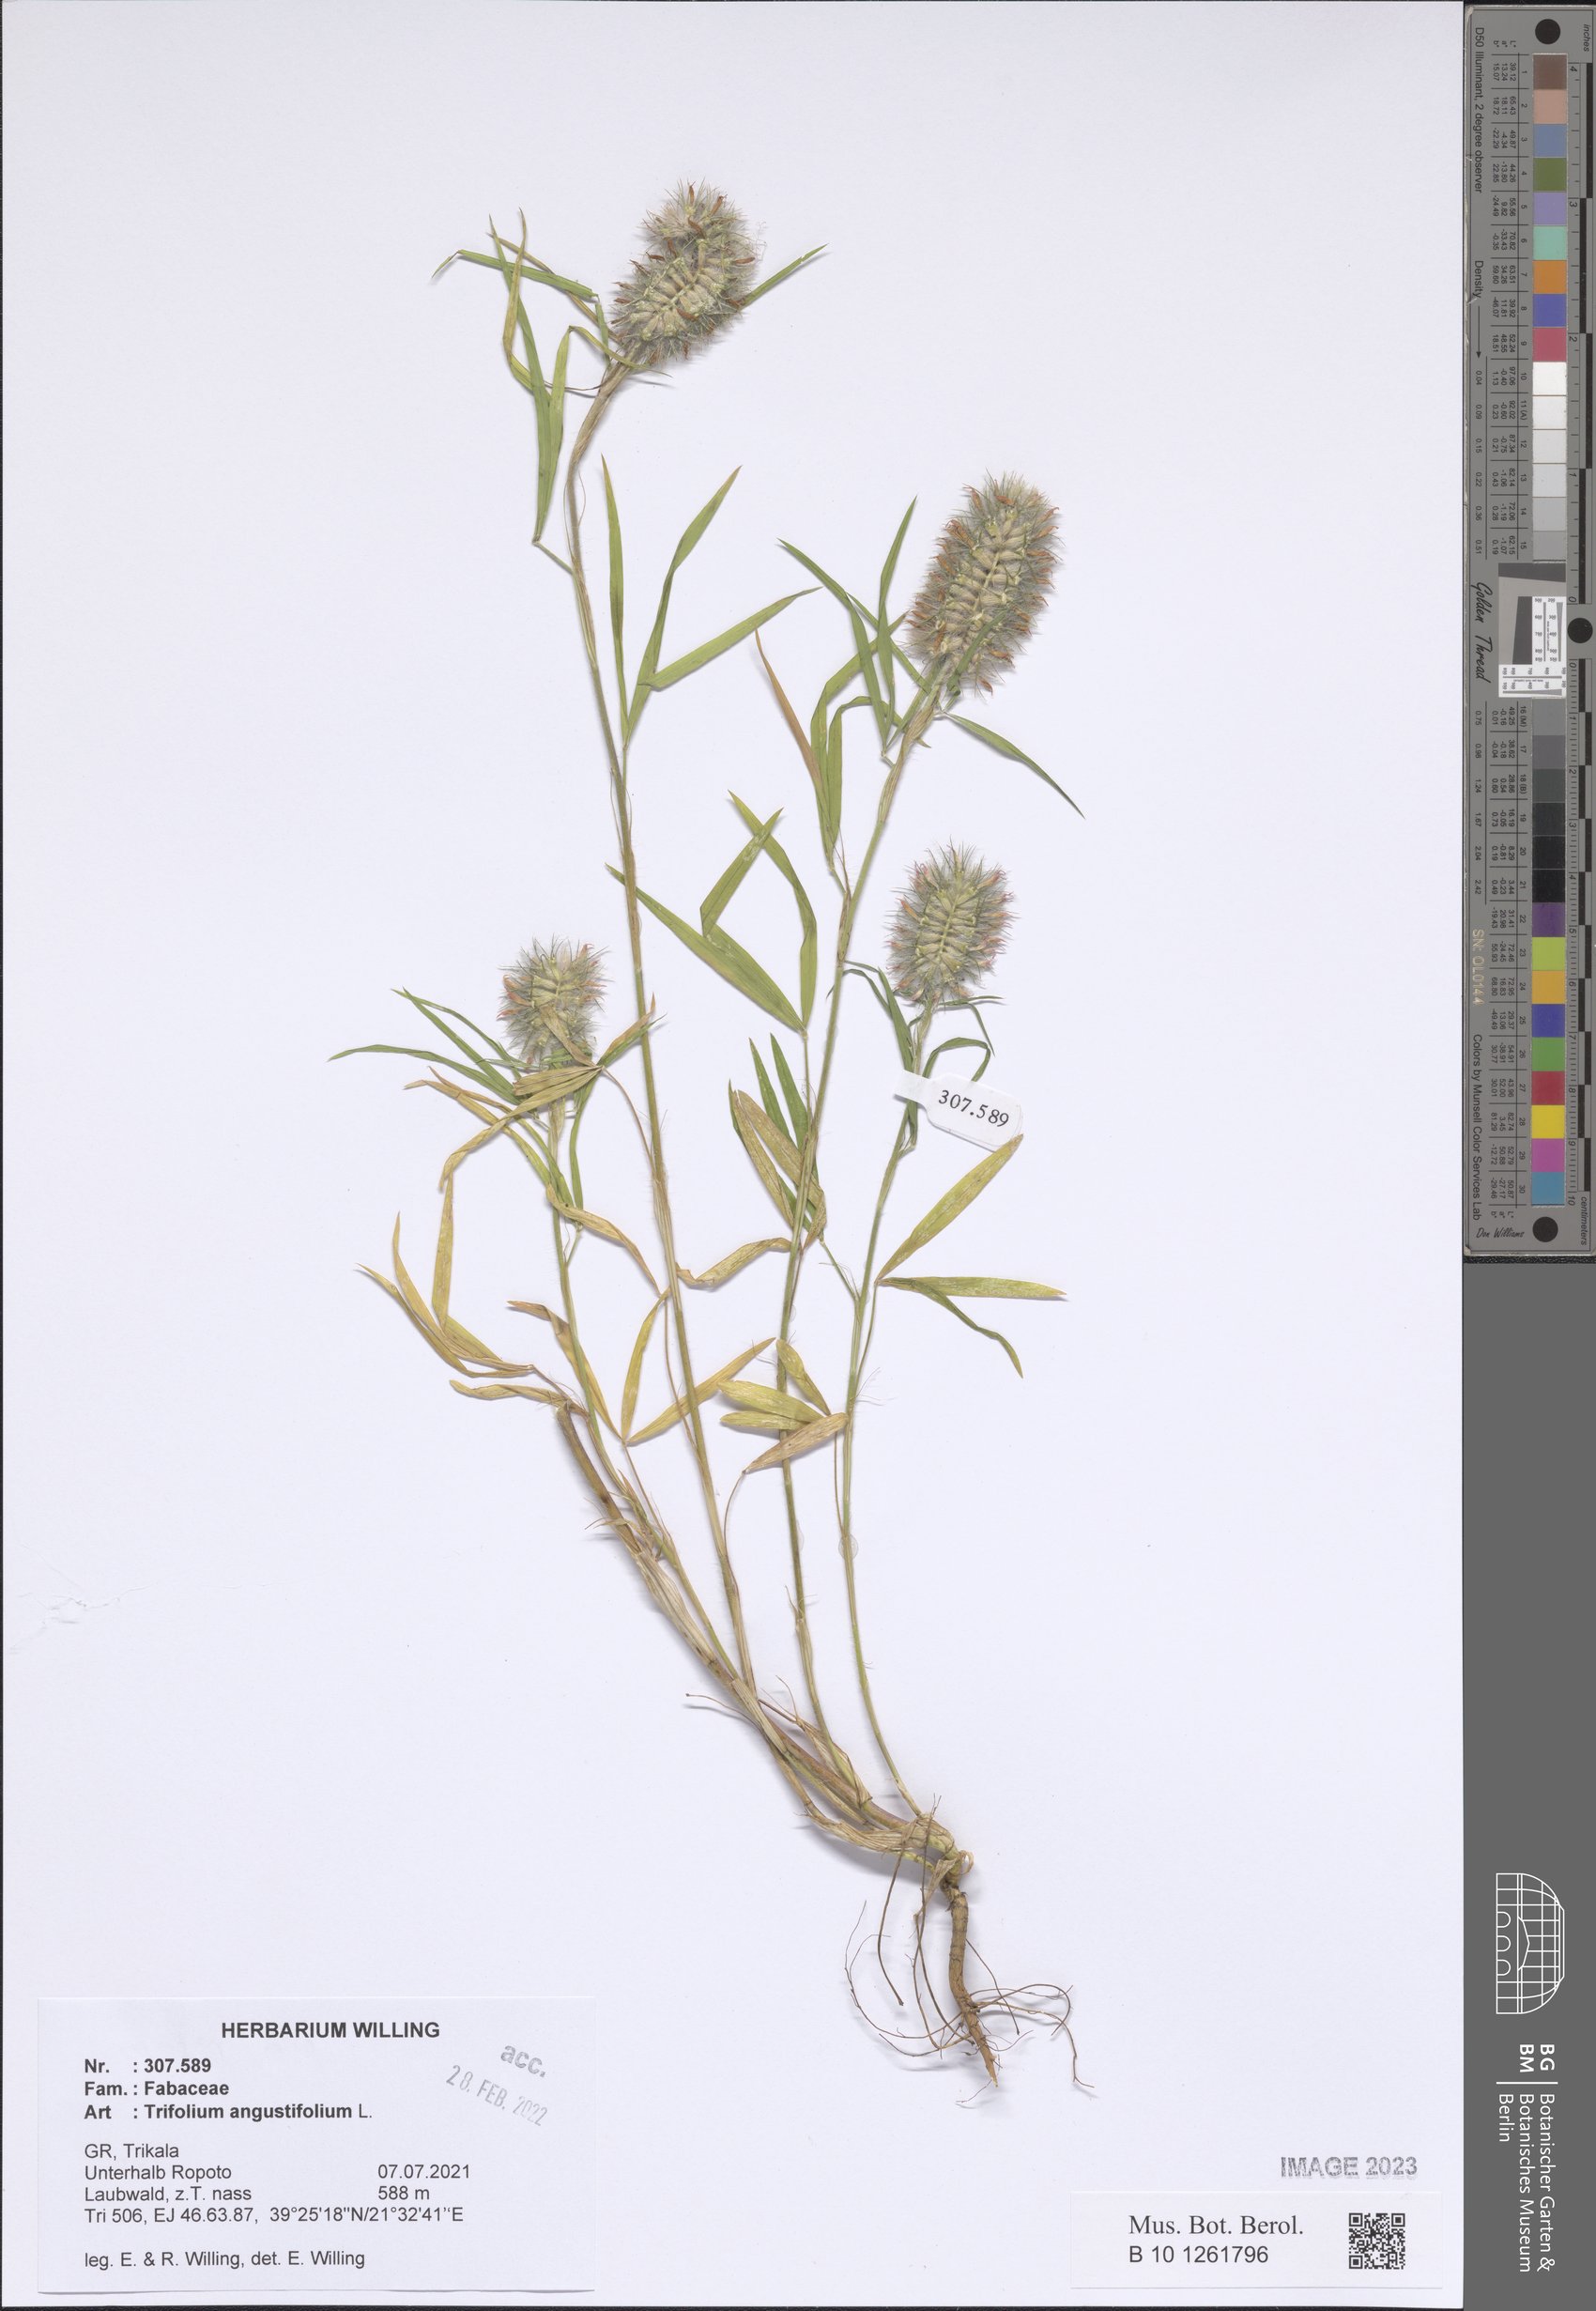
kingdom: Plantae
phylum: Tracheophyta
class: Magnoliopsida
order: Fabales
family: Fabaceae
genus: Trifolium
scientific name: Trifolium angustifolium
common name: Narrow clover
